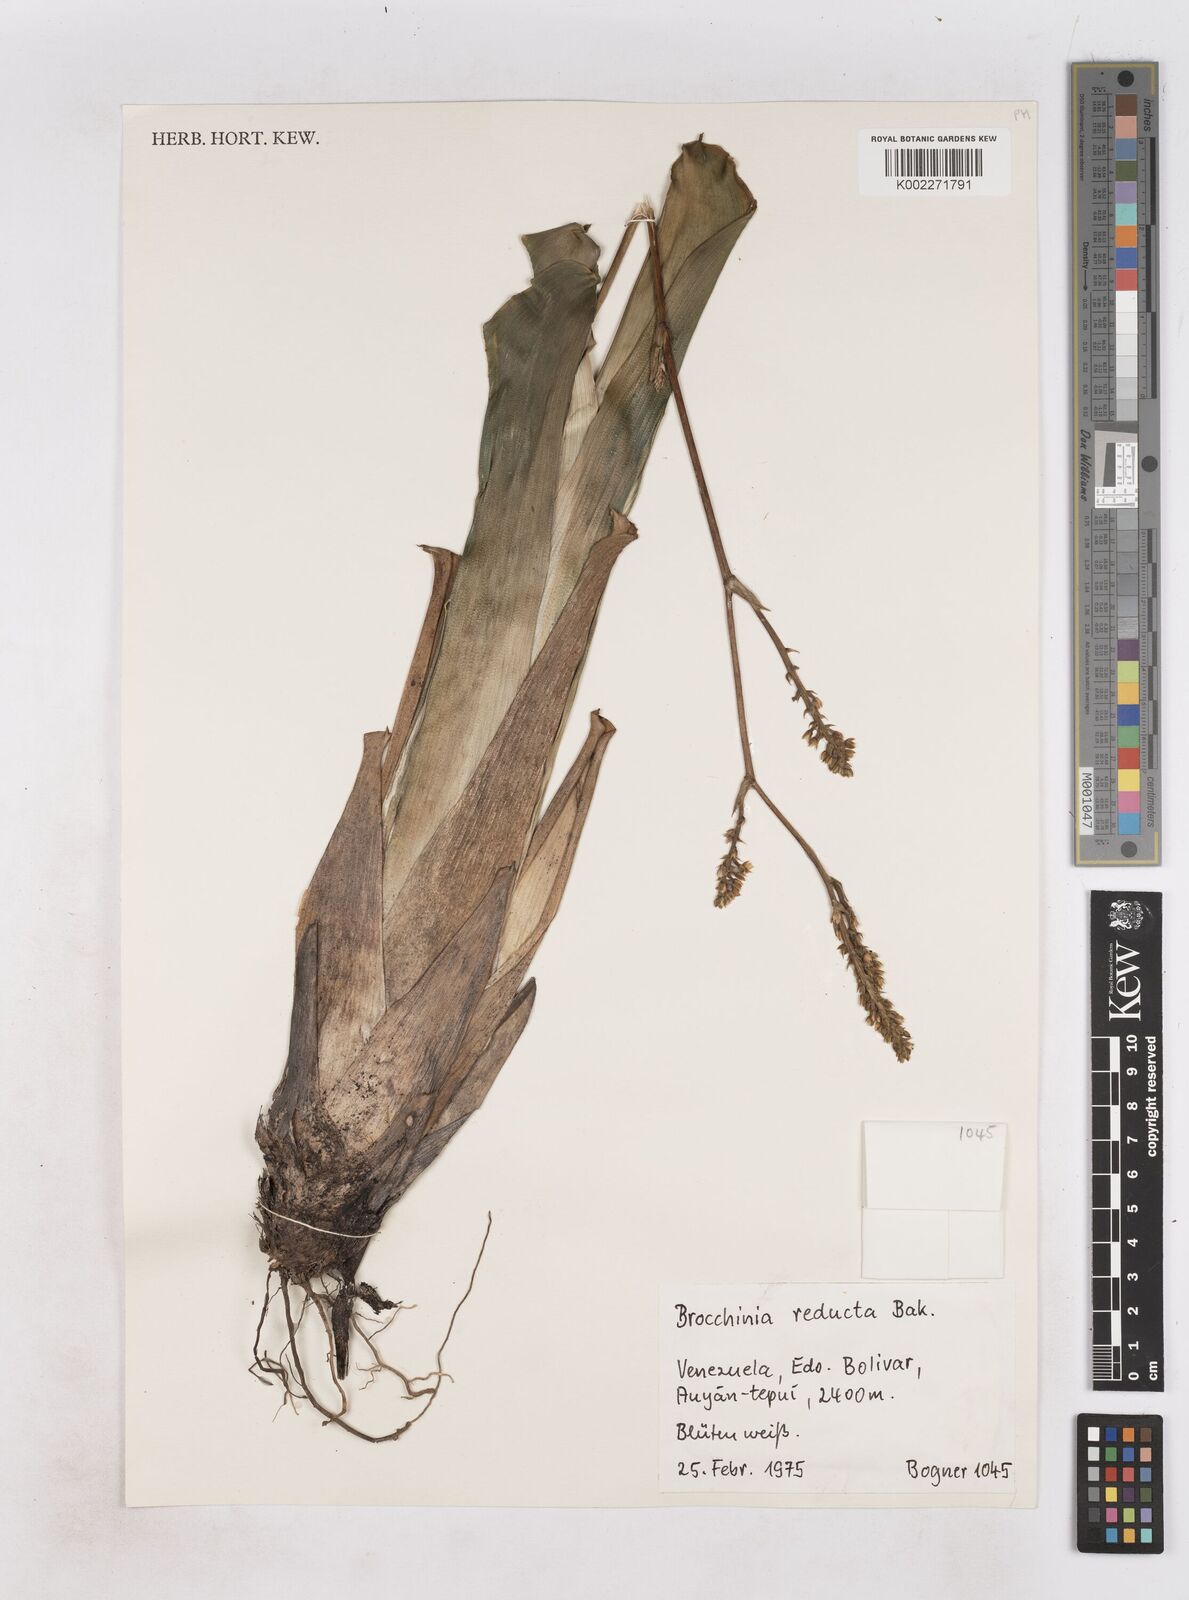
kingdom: Plantae
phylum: Tracheophyta
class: Liliopsida
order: Poales
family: Bromeliaceae
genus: Brocchinia
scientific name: Brocchinia reducta
